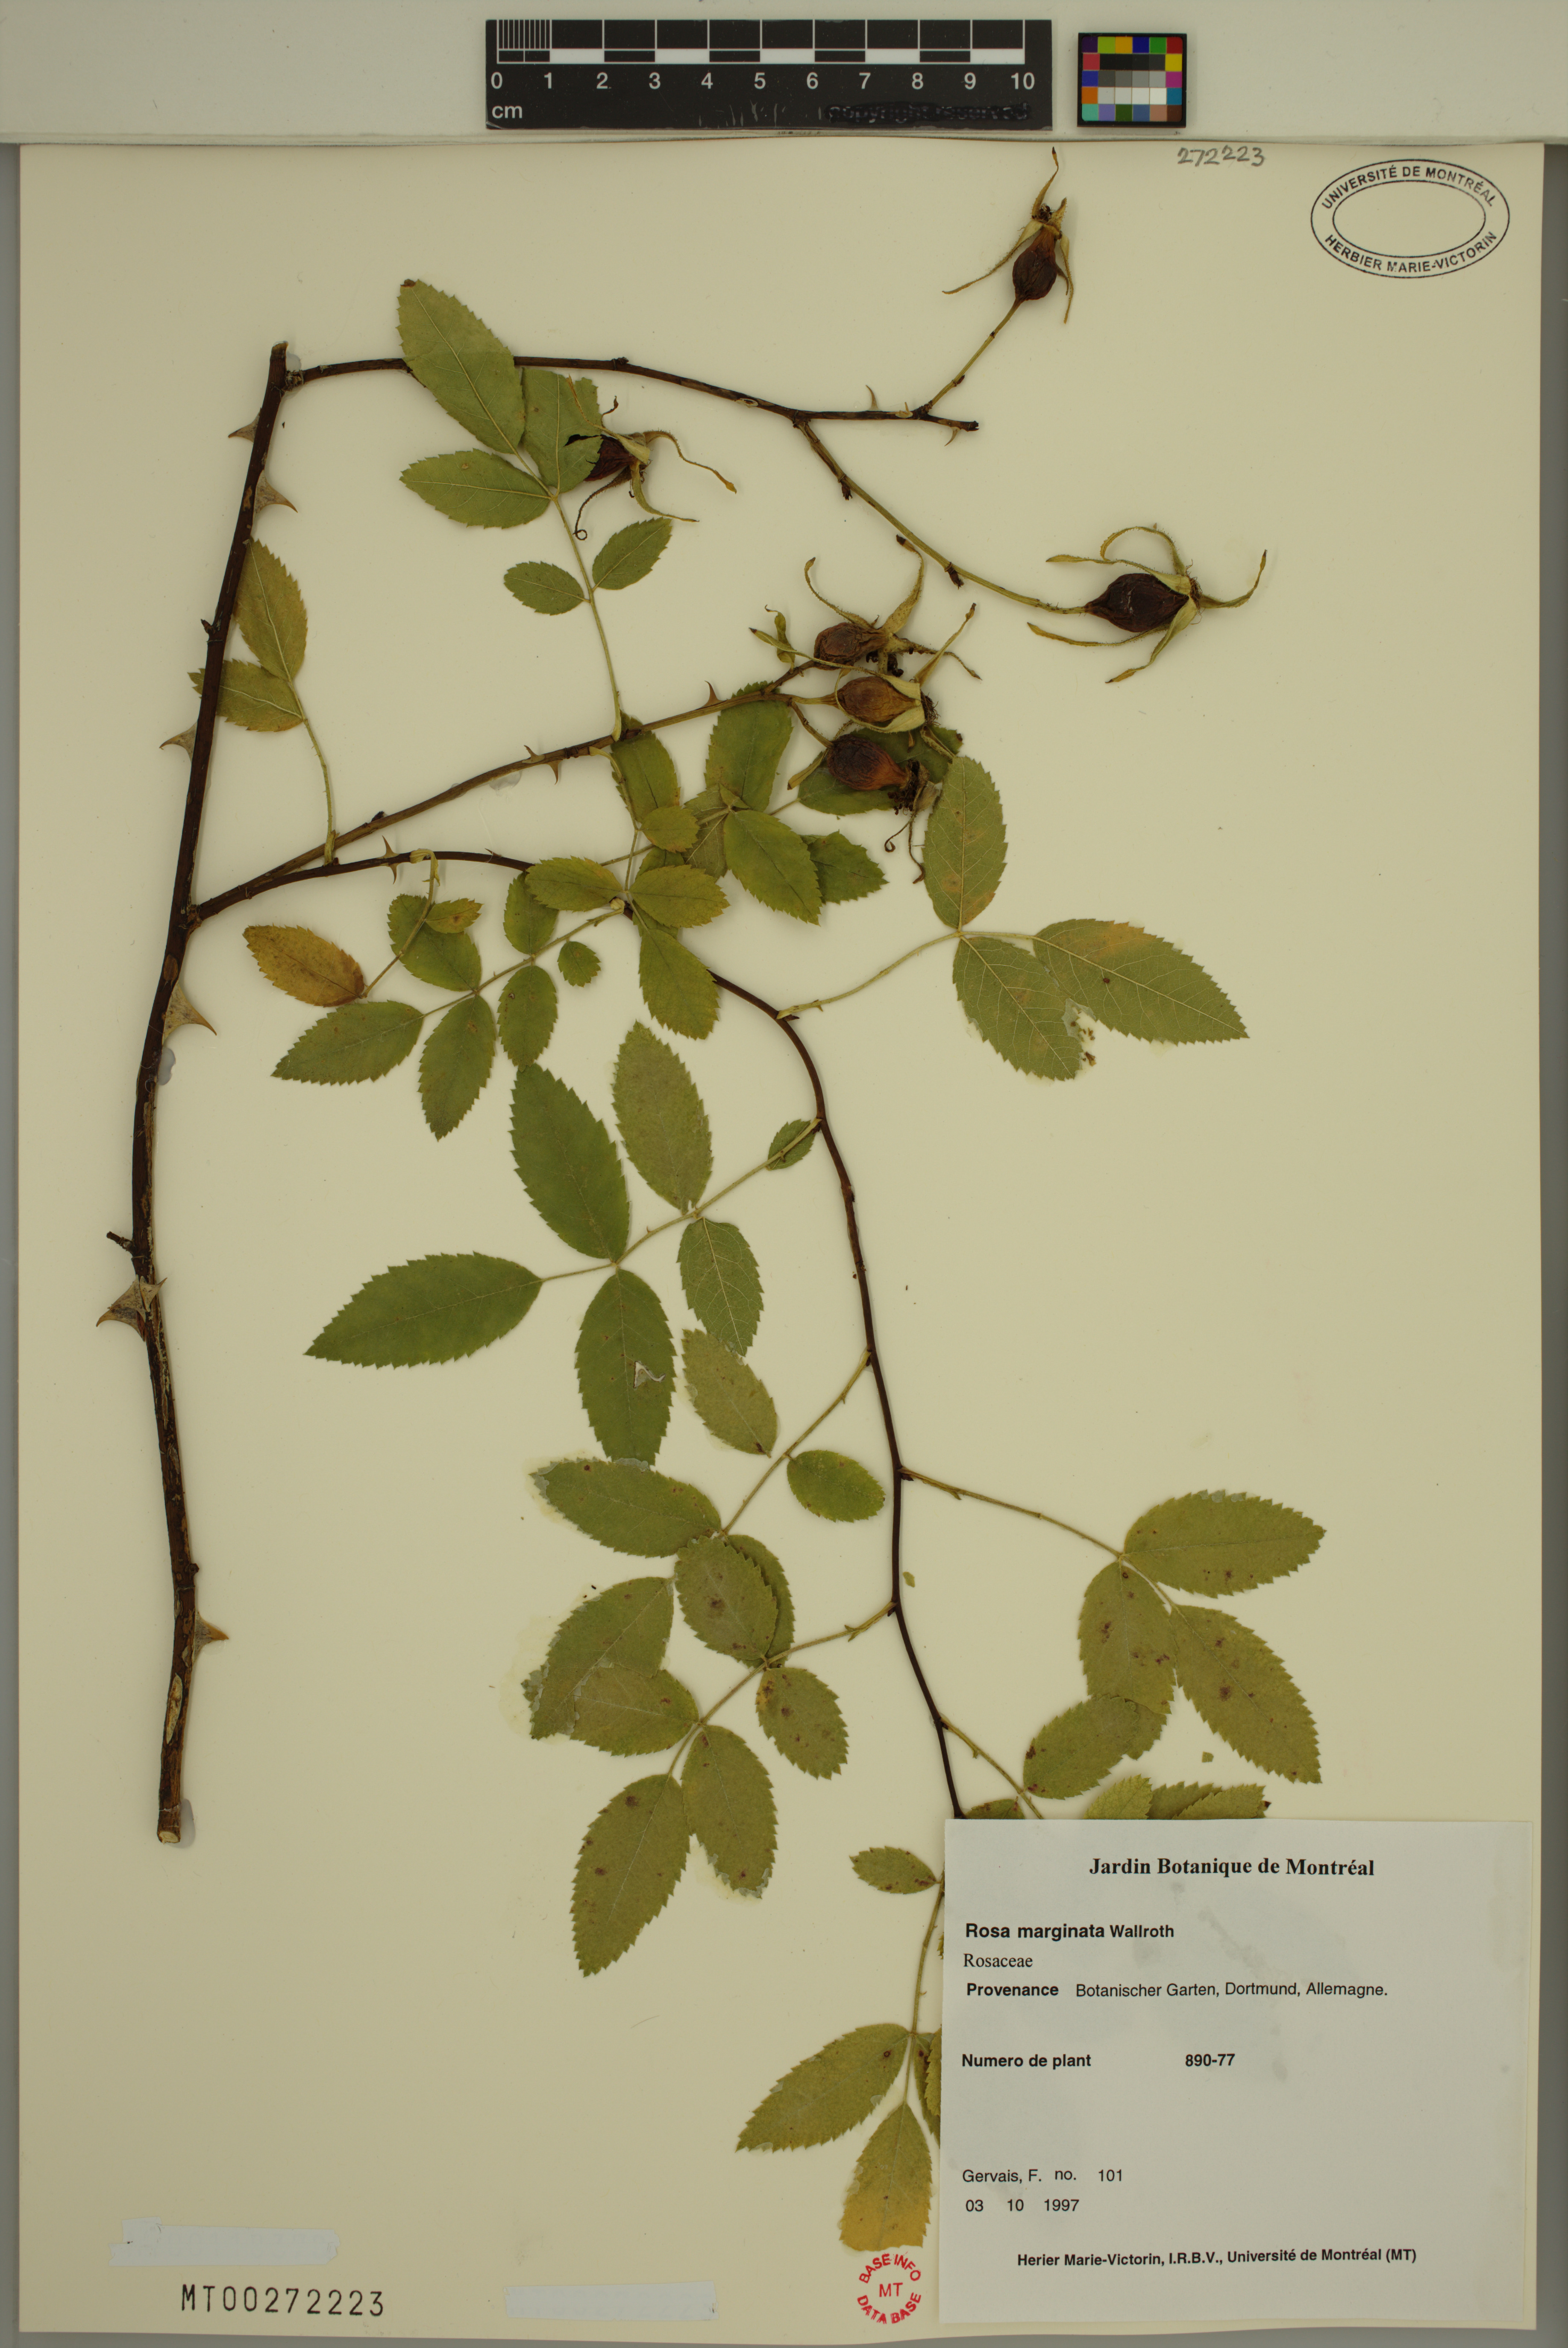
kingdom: Plantae
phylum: Tracheophyta
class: Magnoliopsida
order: Rosales
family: Rosaceae
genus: Rosa
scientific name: Rosa marginata
